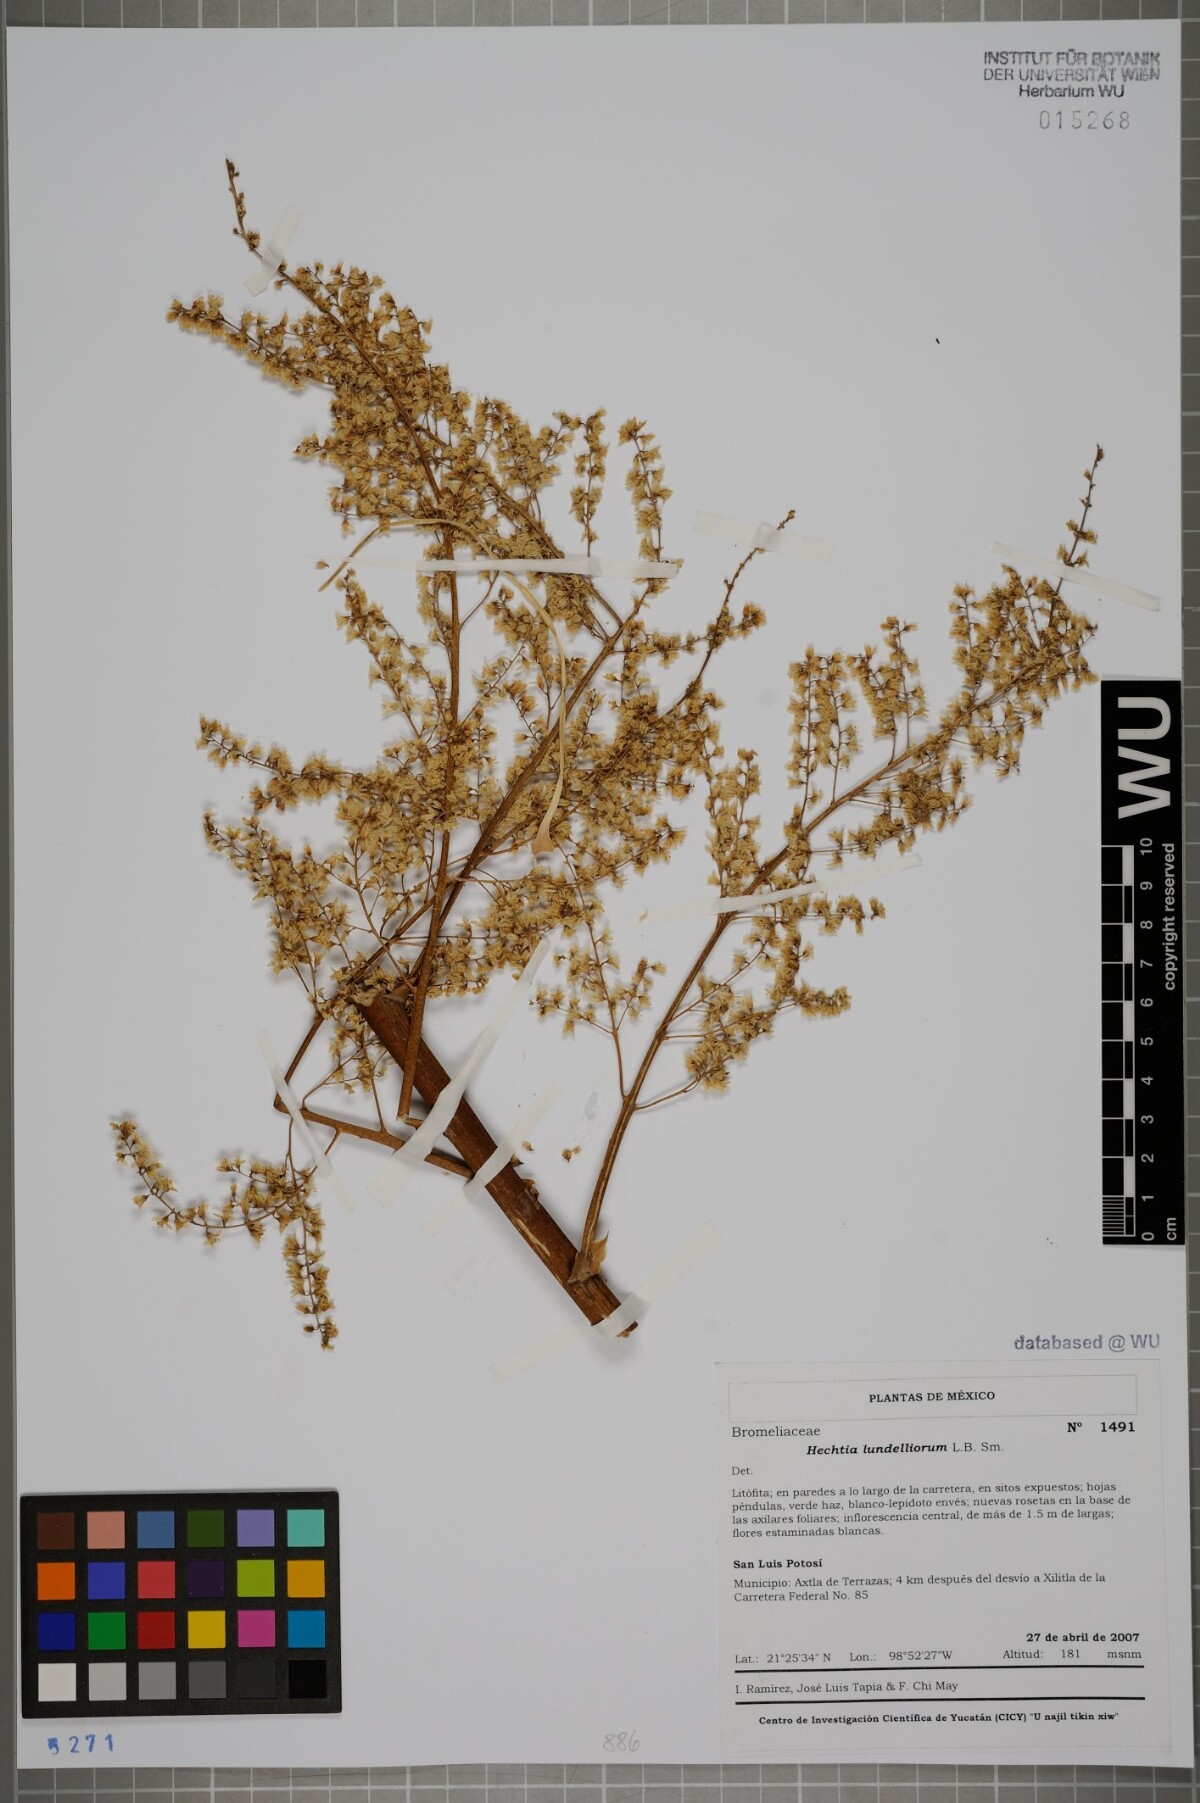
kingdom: Plantae
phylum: Tracheophyta
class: Liliopsida
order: Poales
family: Bromeliaceae
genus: Hechtia
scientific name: Hechtia lundelliorum
